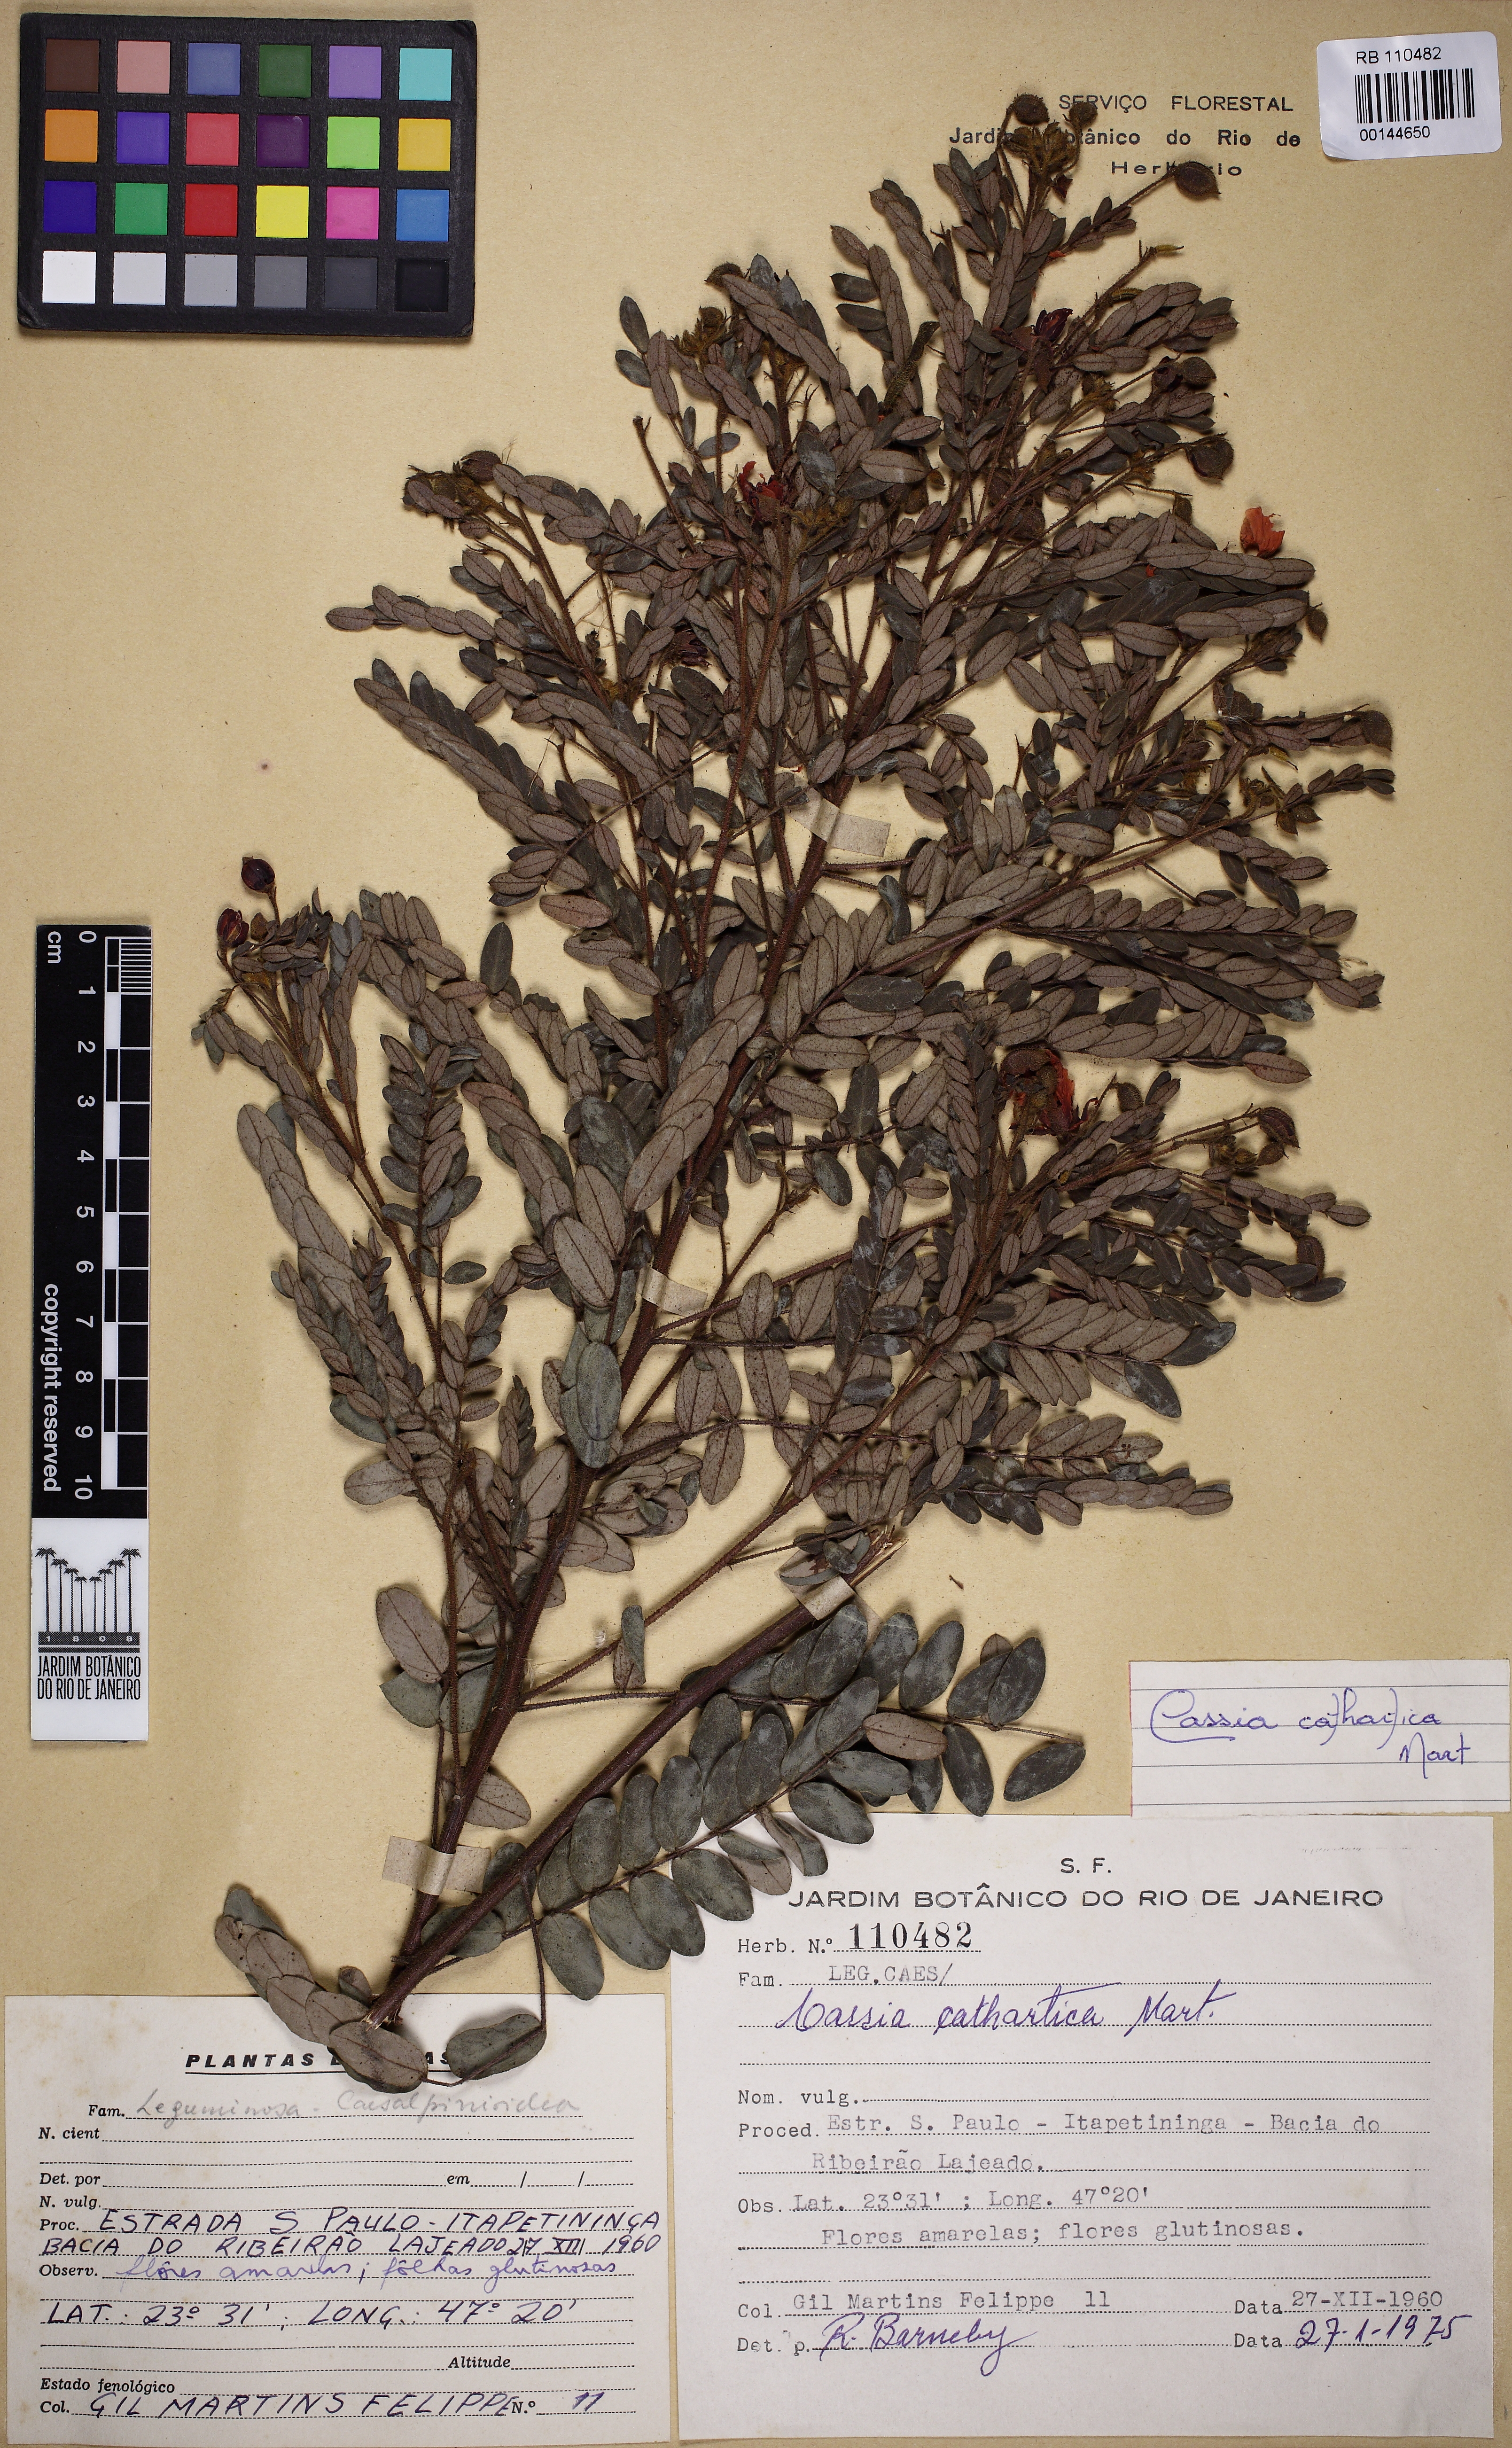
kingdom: Plantae
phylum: Tracheophyta
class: Magnoliopsida
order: Fabales
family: Fabaceae
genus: Chamaecrista
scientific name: Chamaecrista cathartica
